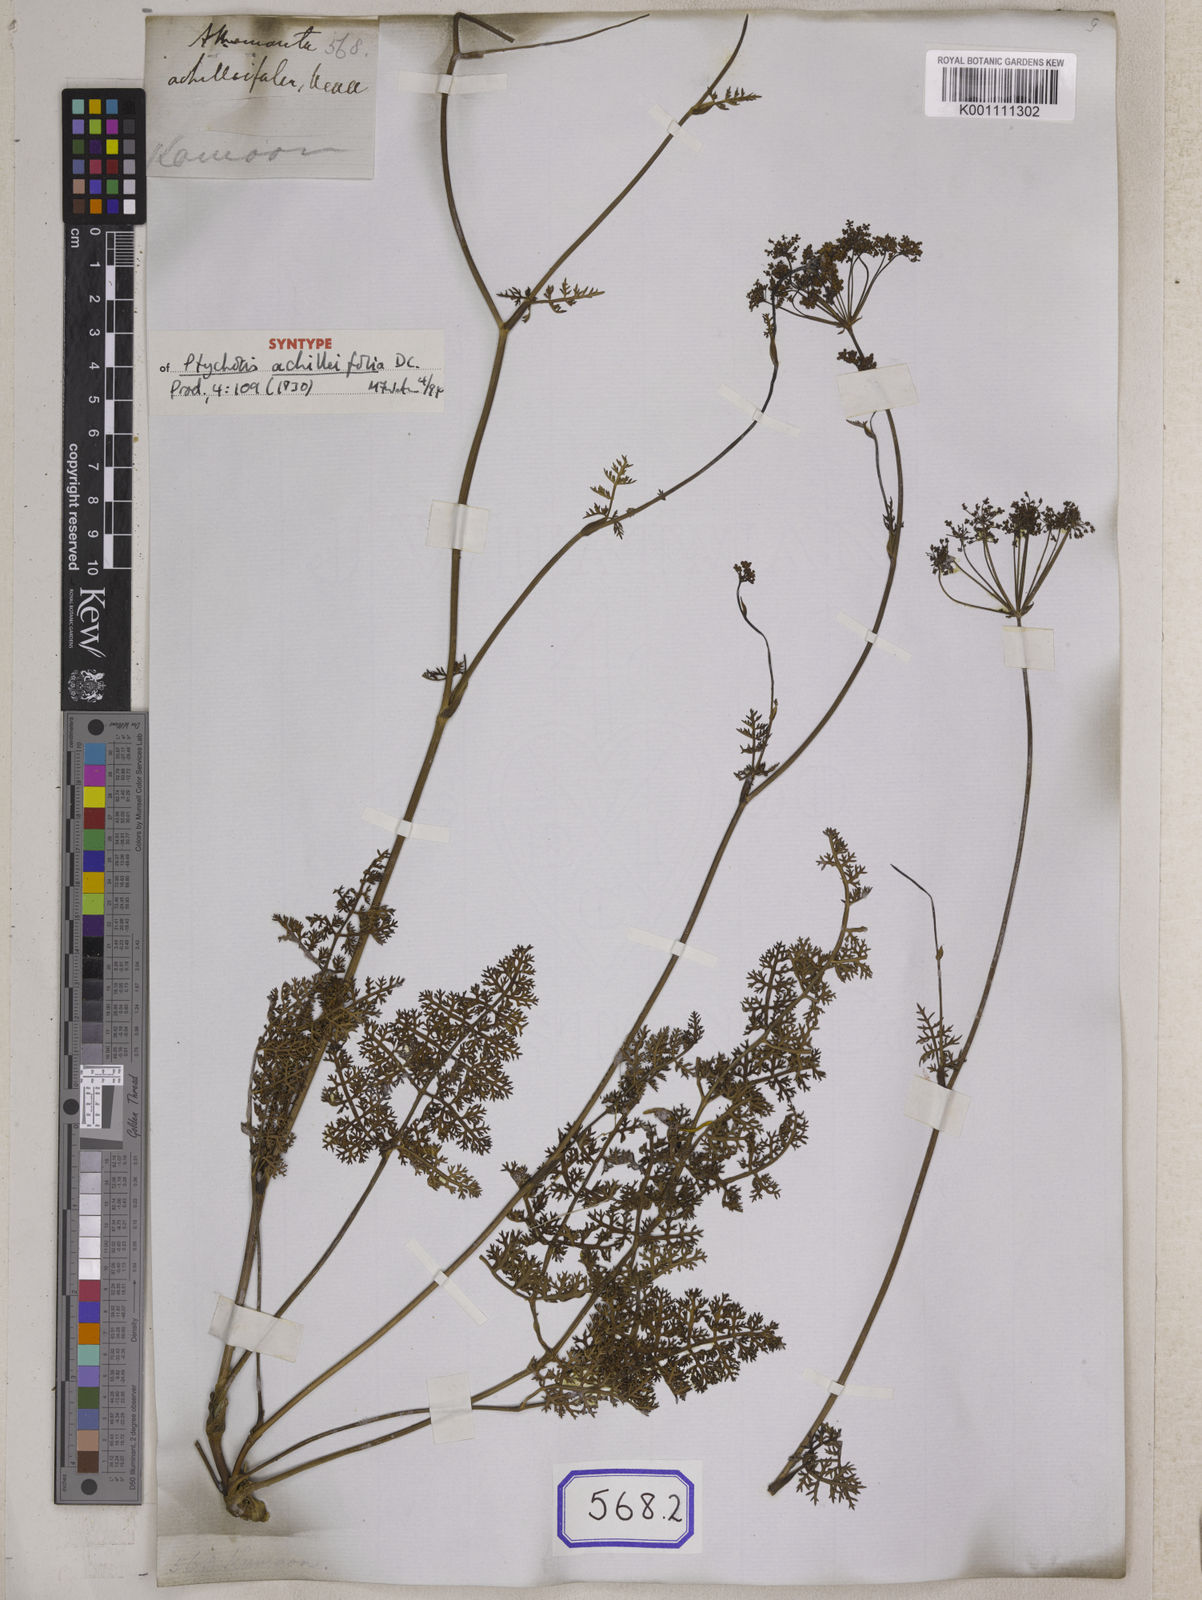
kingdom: Plantae
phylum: Tracheophyta
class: Magnoliopsida
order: Apiales
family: Apiaceae
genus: Meeboldia
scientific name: Meeboldia achilleifolia
